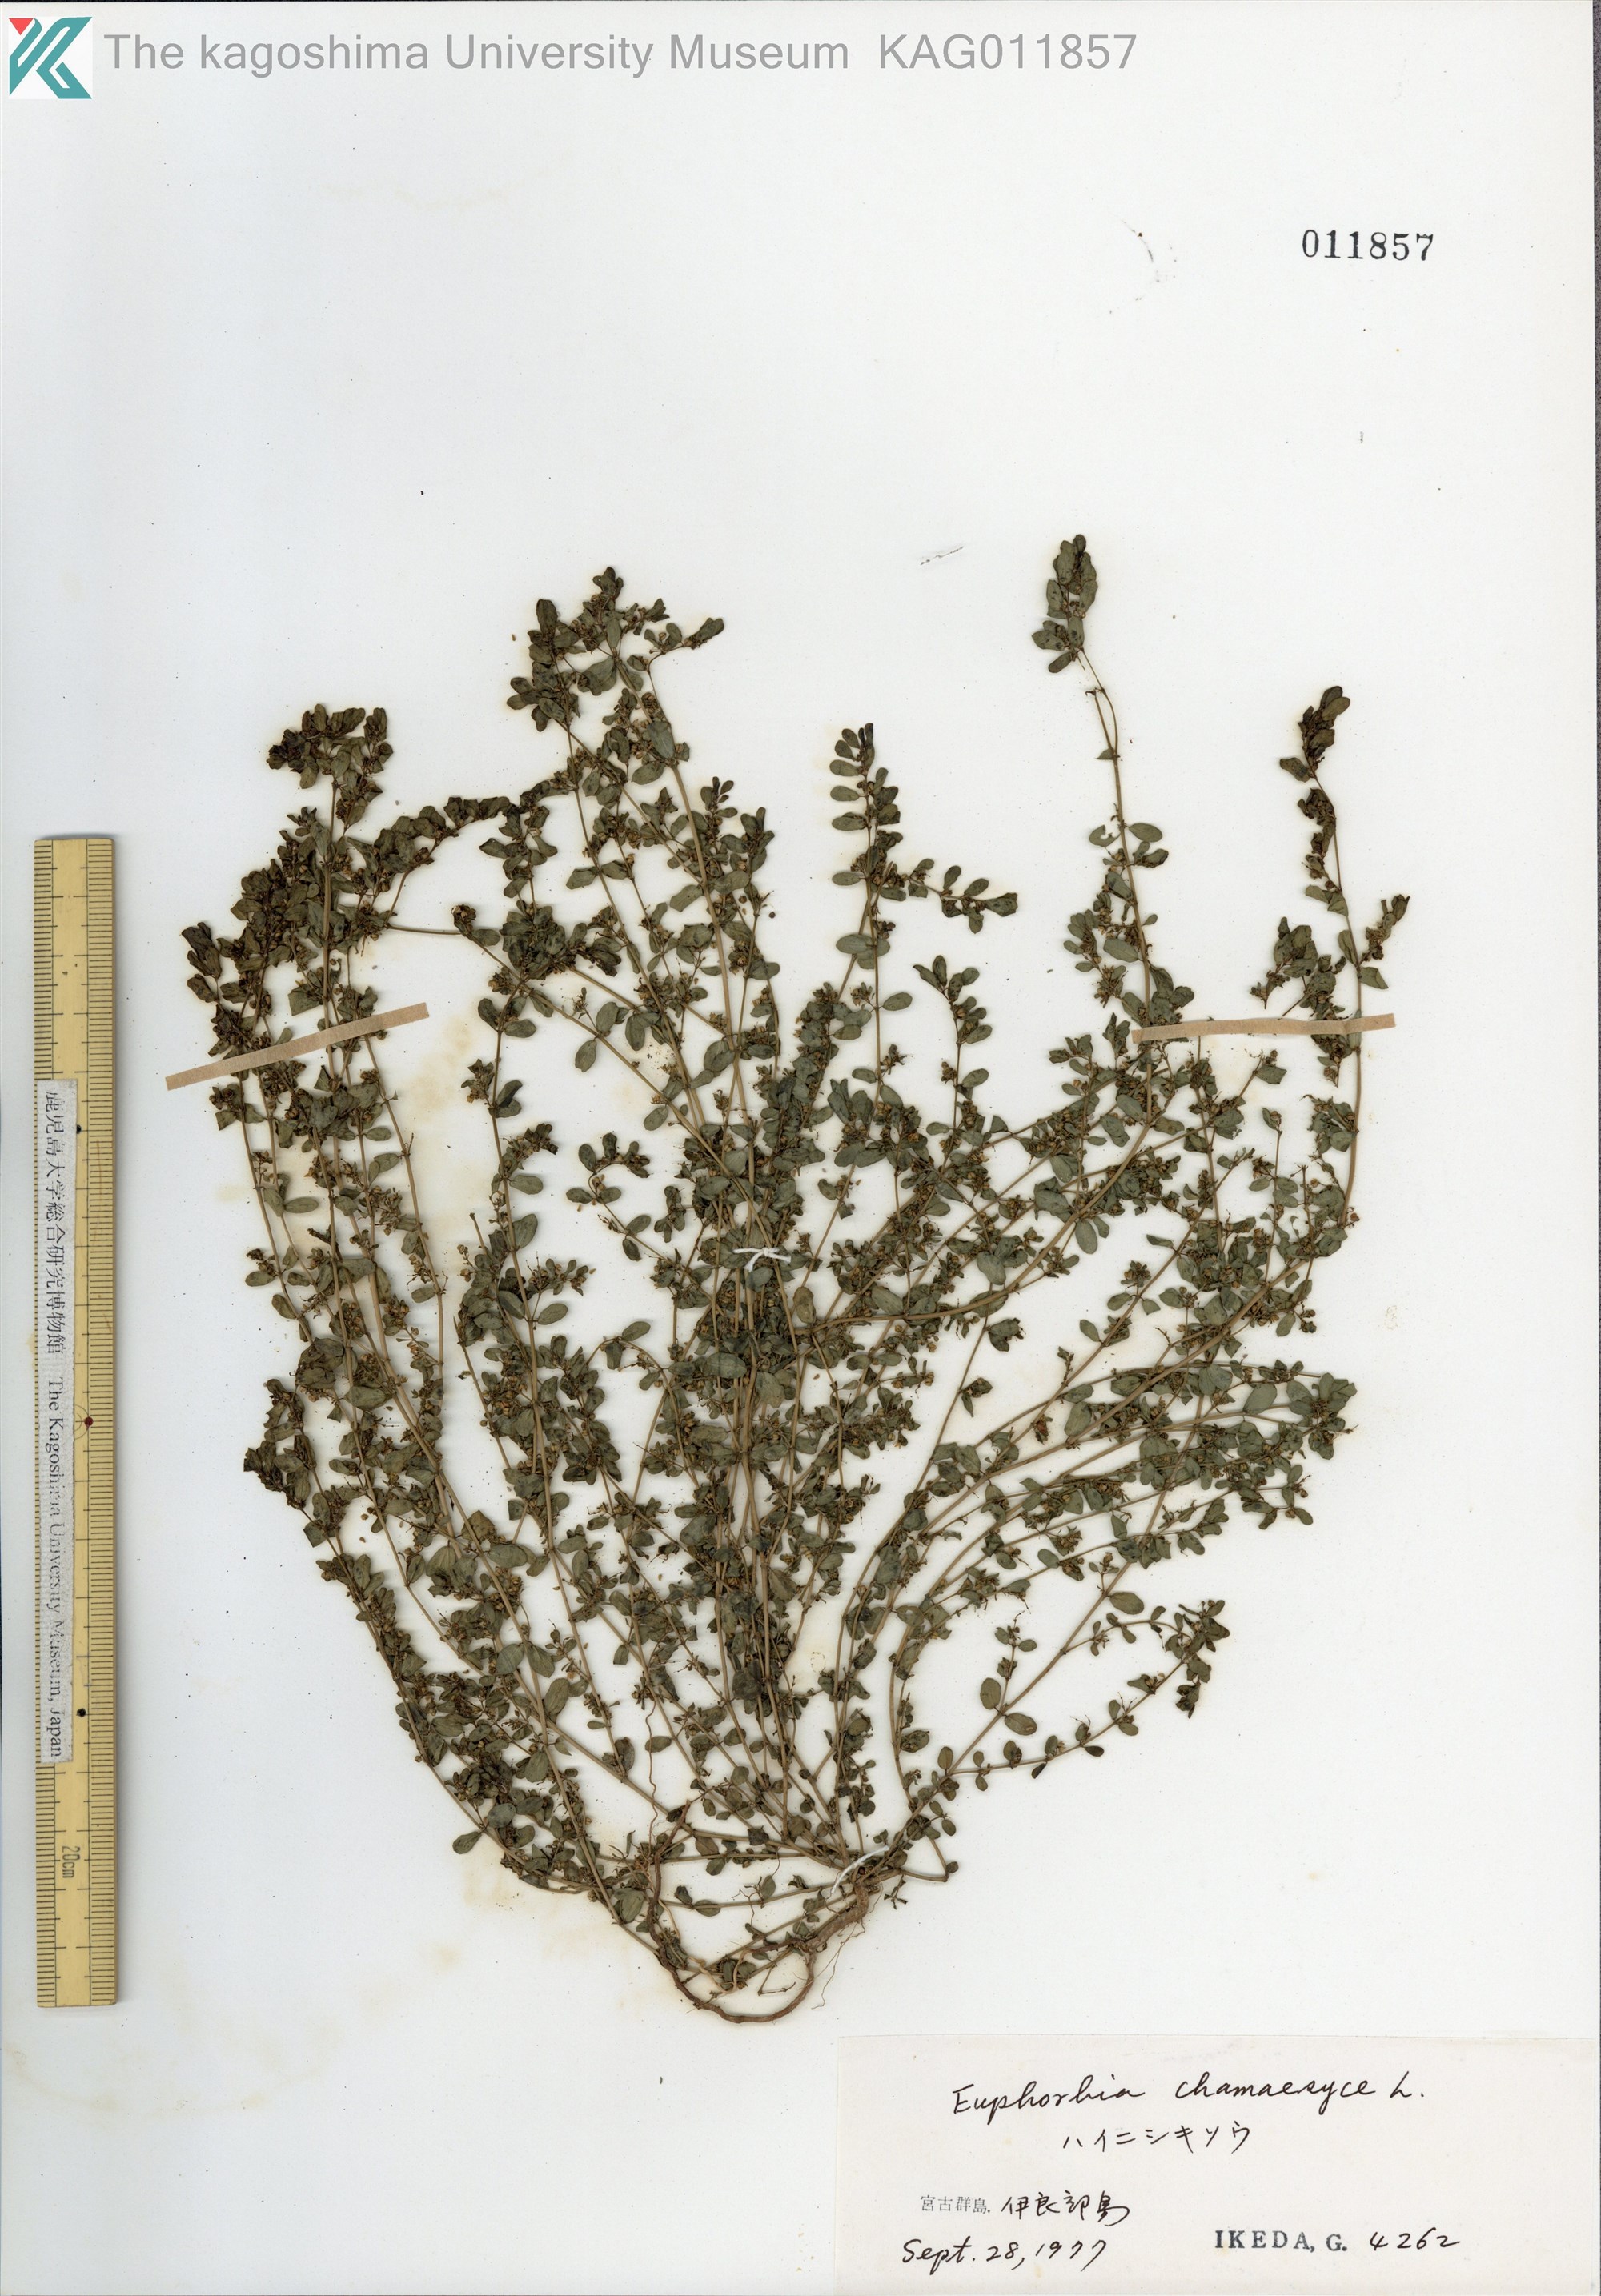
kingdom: Plantae
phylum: Tracheophyta
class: Magnoliopsida
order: Malpighiales
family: Euphorbiaceae
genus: Euphorbia
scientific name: Euphorbia prostrata
